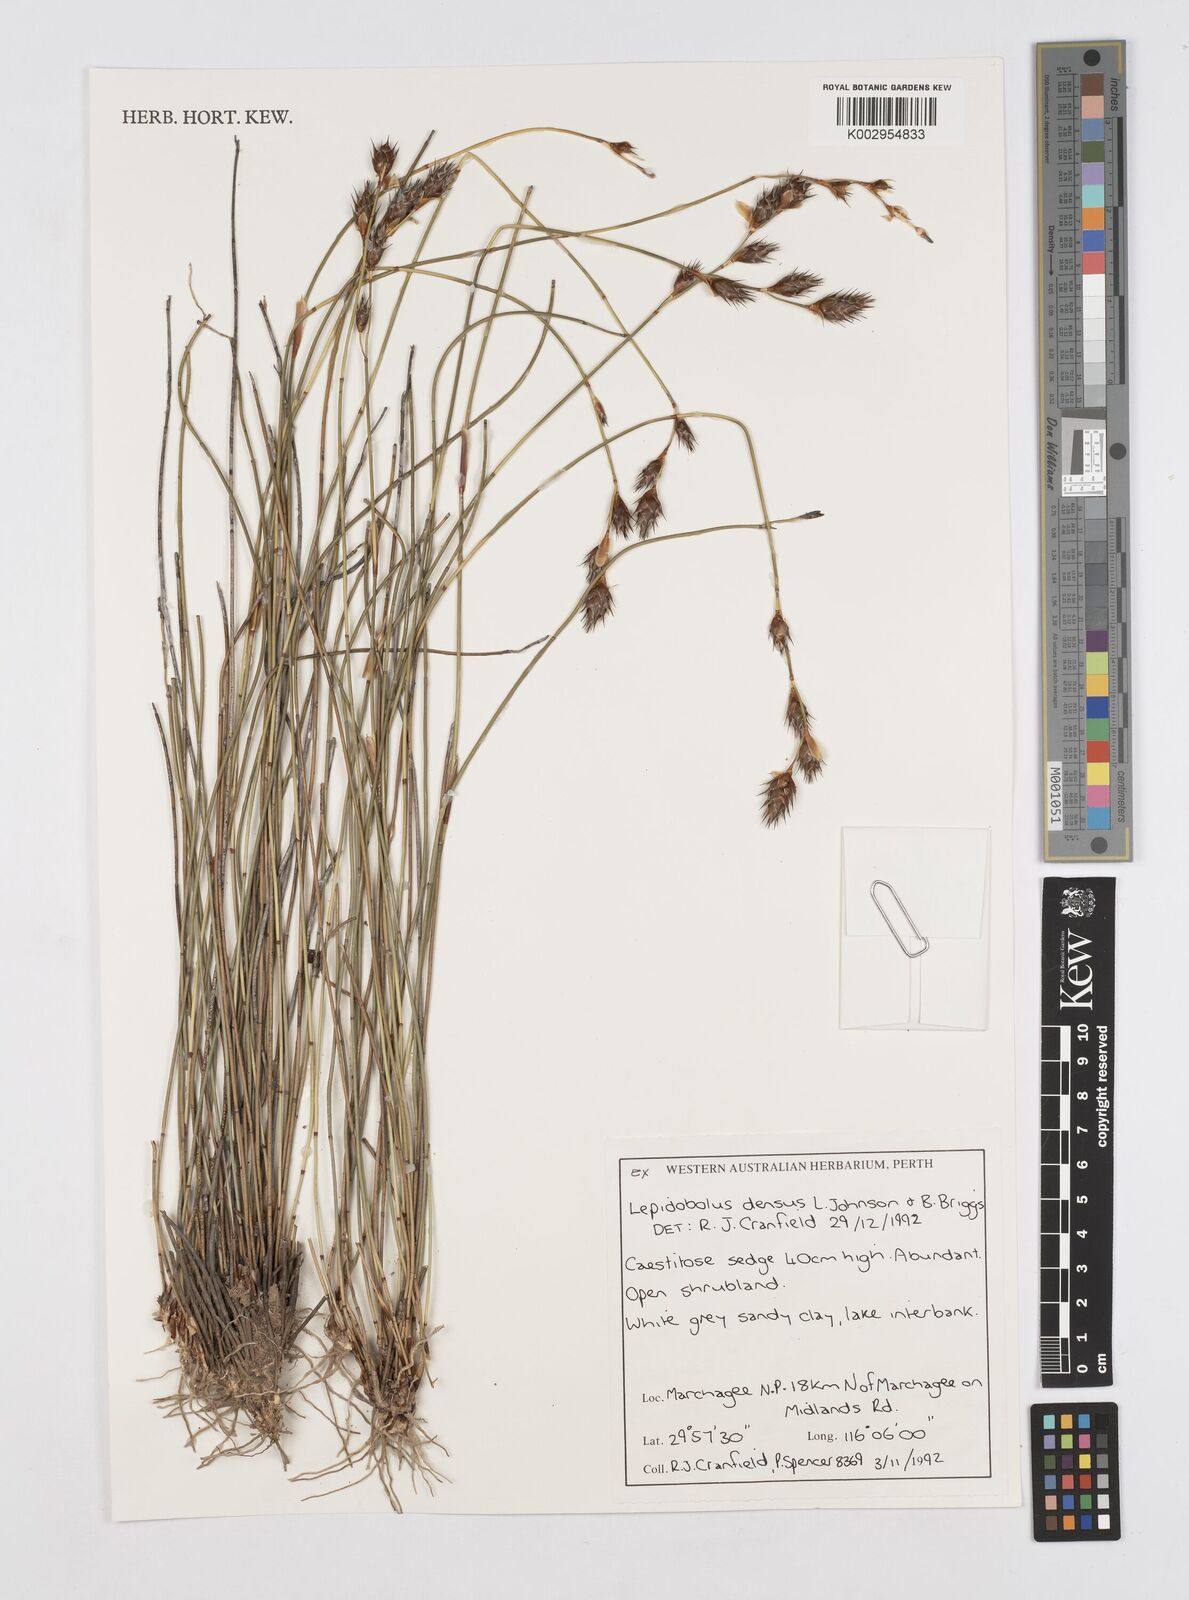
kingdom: Plantae
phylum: Tracheophyta
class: Liliopsida
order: Poales
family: Restionaceae
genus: Lepidobolus
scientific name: Lepidobolus densus
